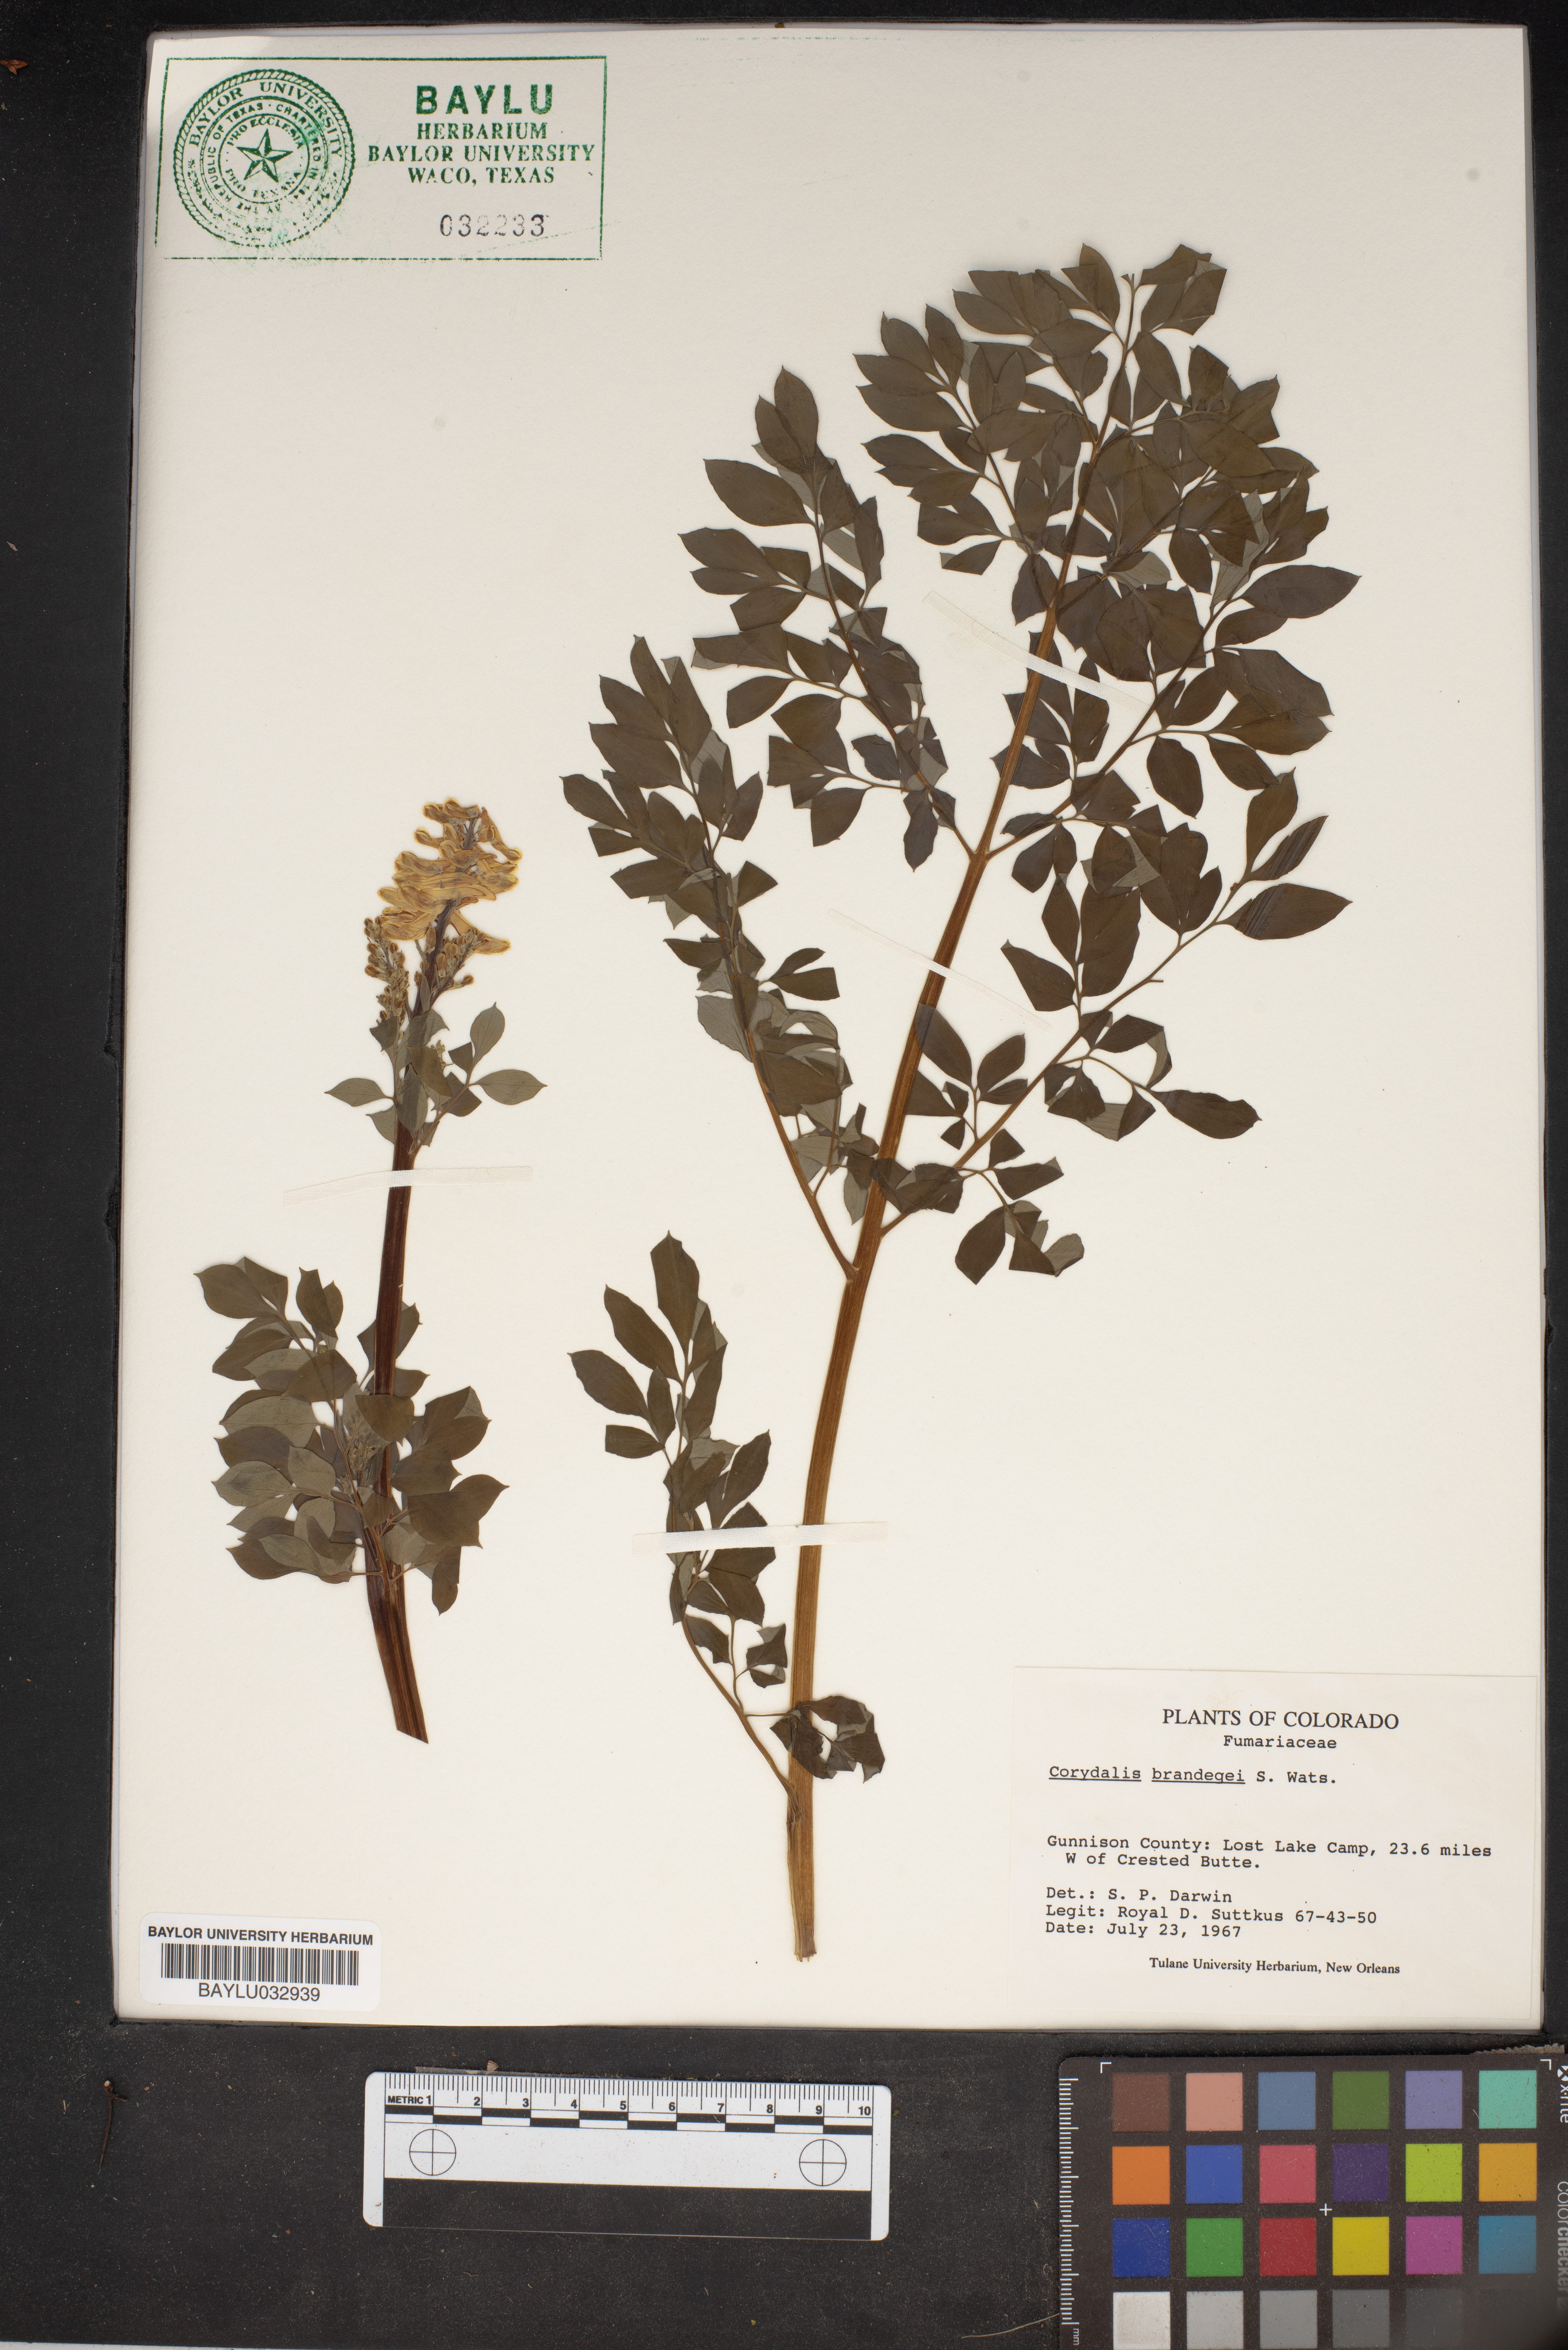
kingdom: Plantae
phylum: Tracheophyta
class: Magnoliopsida
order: Ranunculales
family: Papaveraceae
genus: Corydalis
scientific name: Corydalis caseana
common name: Fitweed
